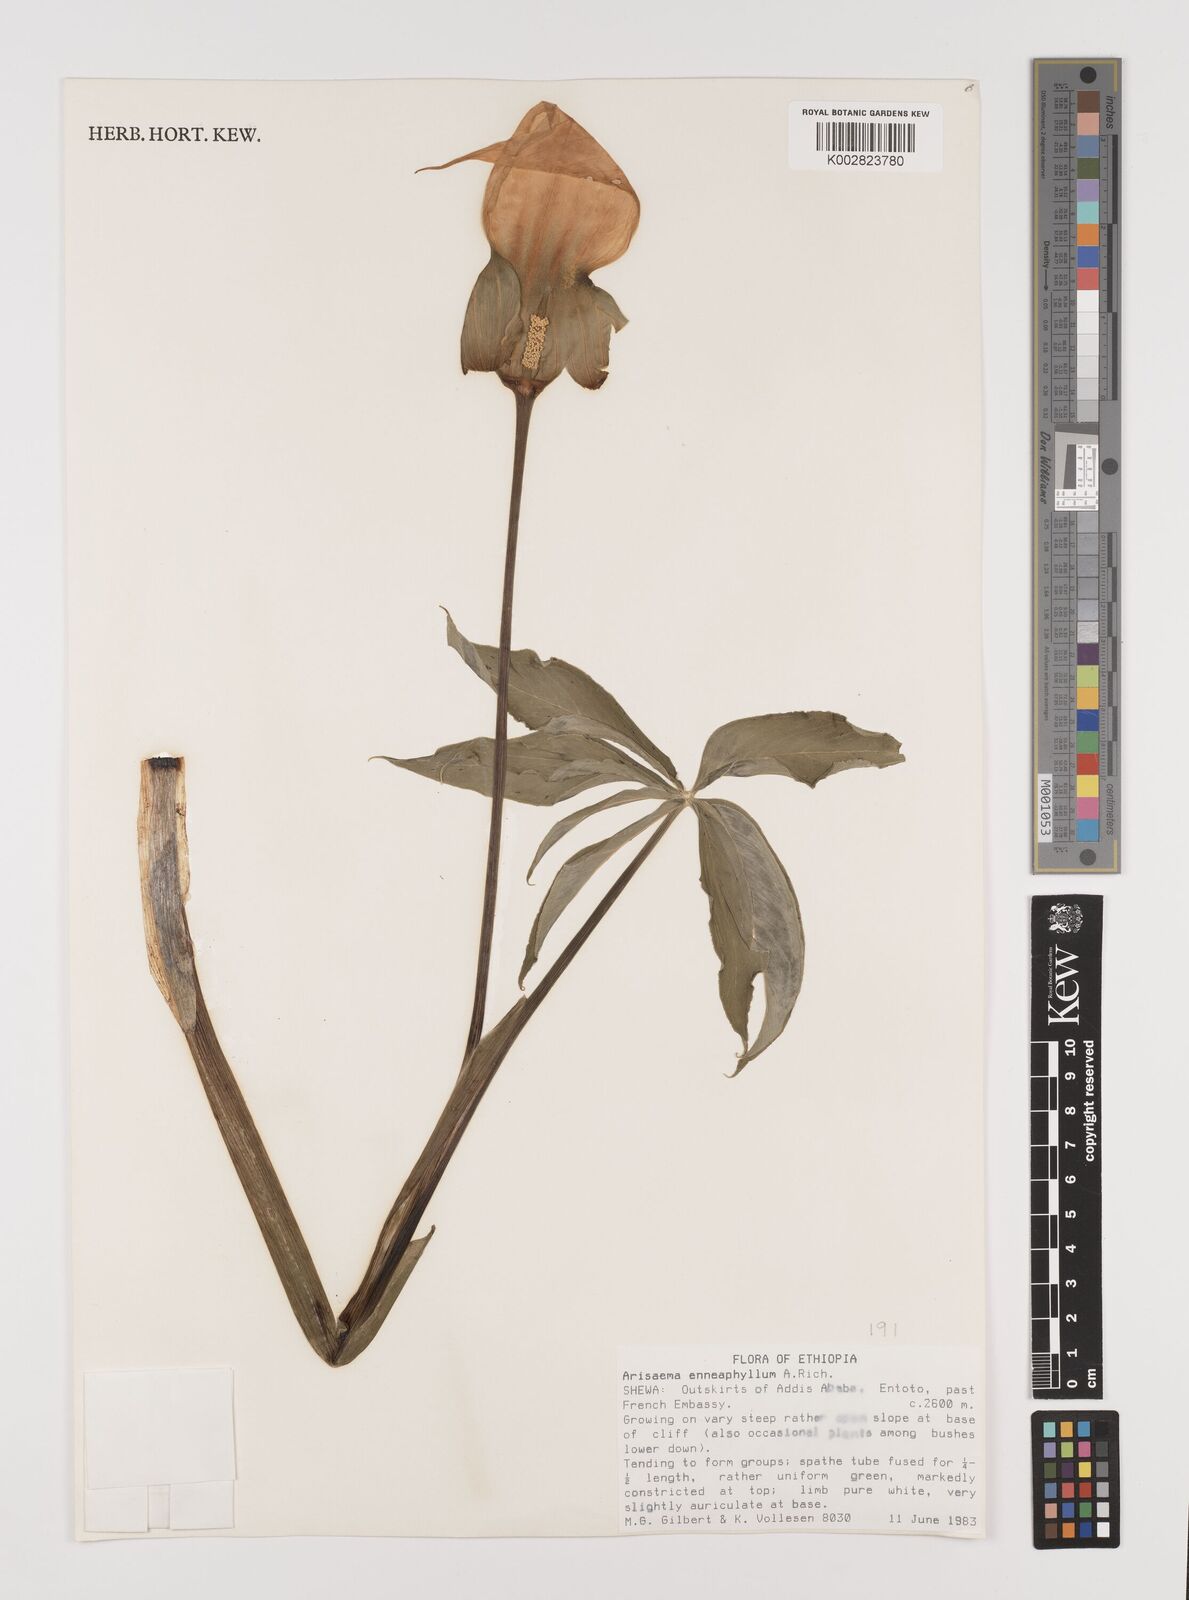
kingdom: Plantae
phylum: Tracheophyta
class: Liliopsida
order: Alismatales
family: Araceae
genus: Arisaema
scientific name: Arisaema enneaphyllum
